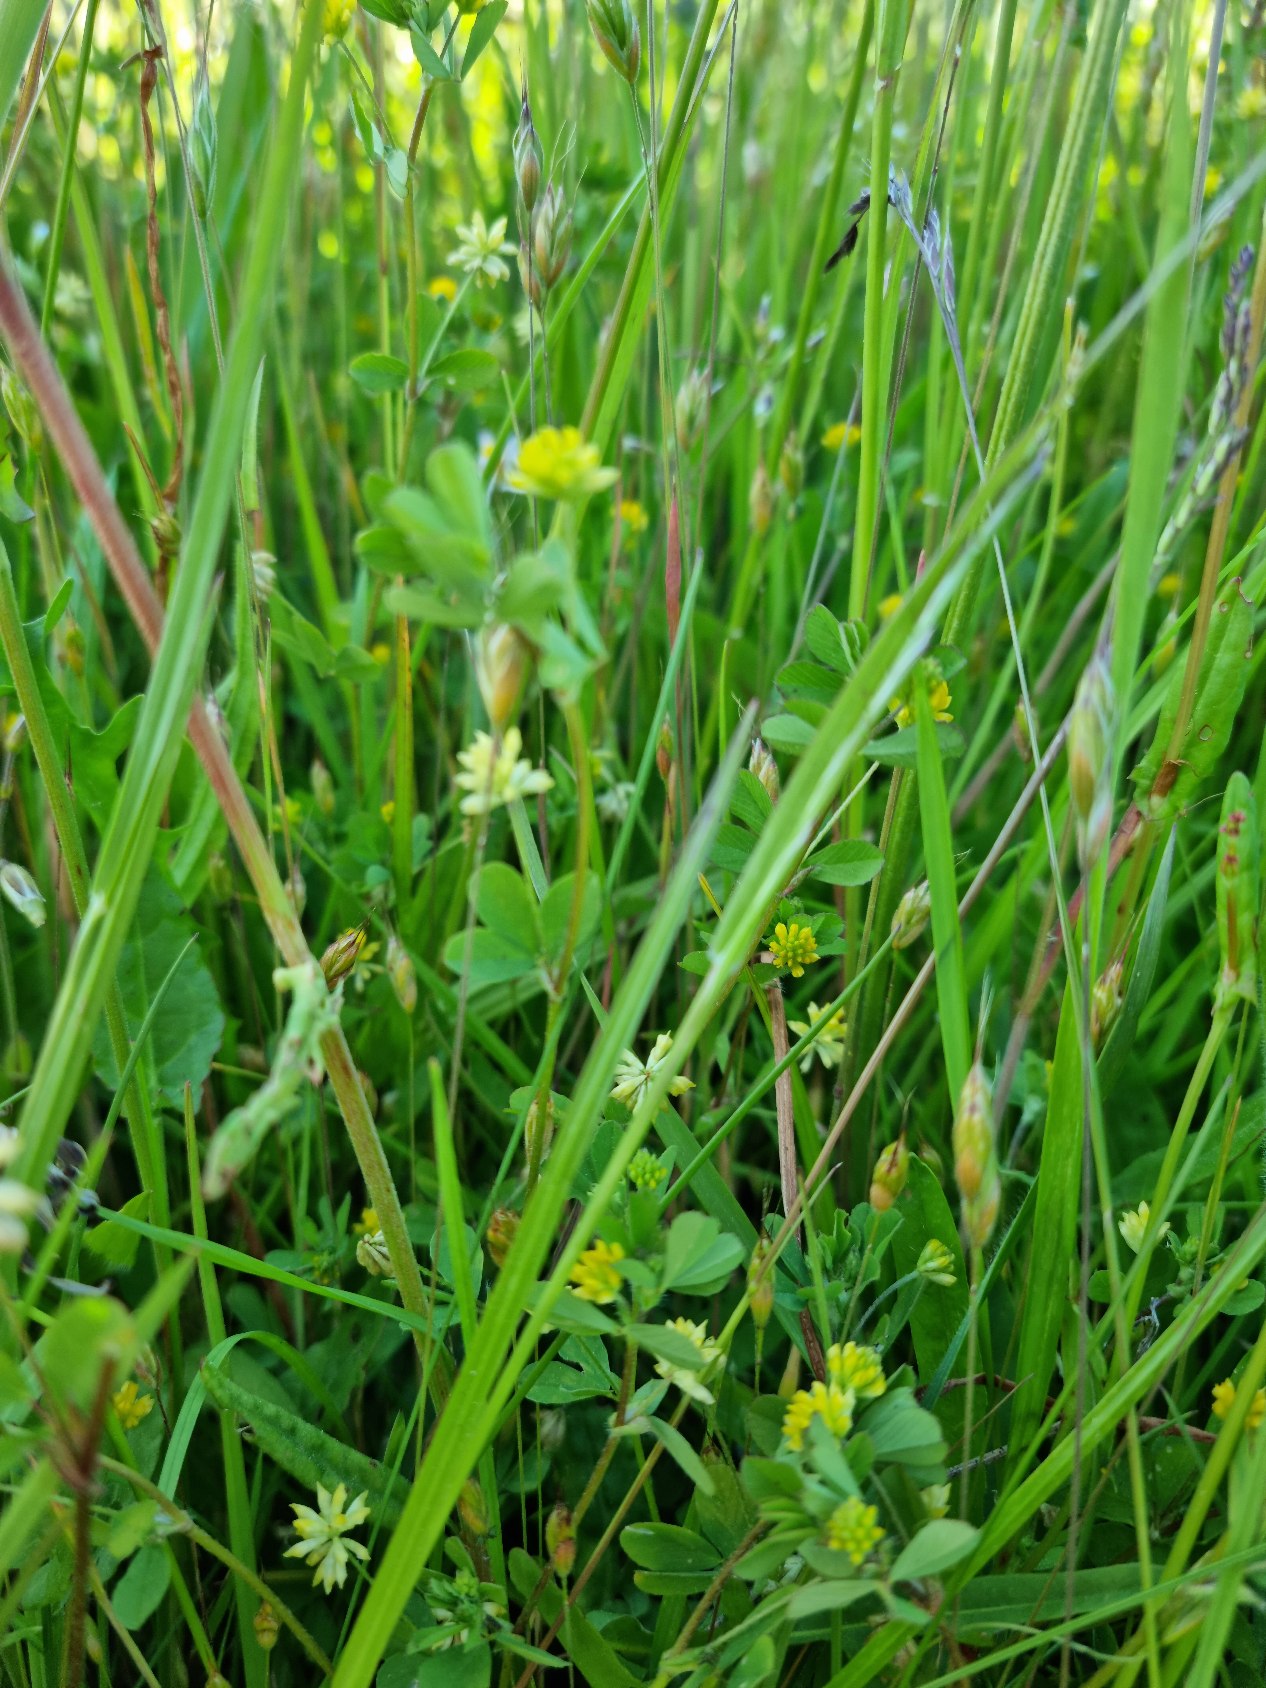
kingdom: Plantae
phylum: Tracheophyta
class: Magnoliopsida
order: Fabales
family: Fabaceae
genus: Trifolium
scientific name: Trifolium dubium
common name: Fin kløver
